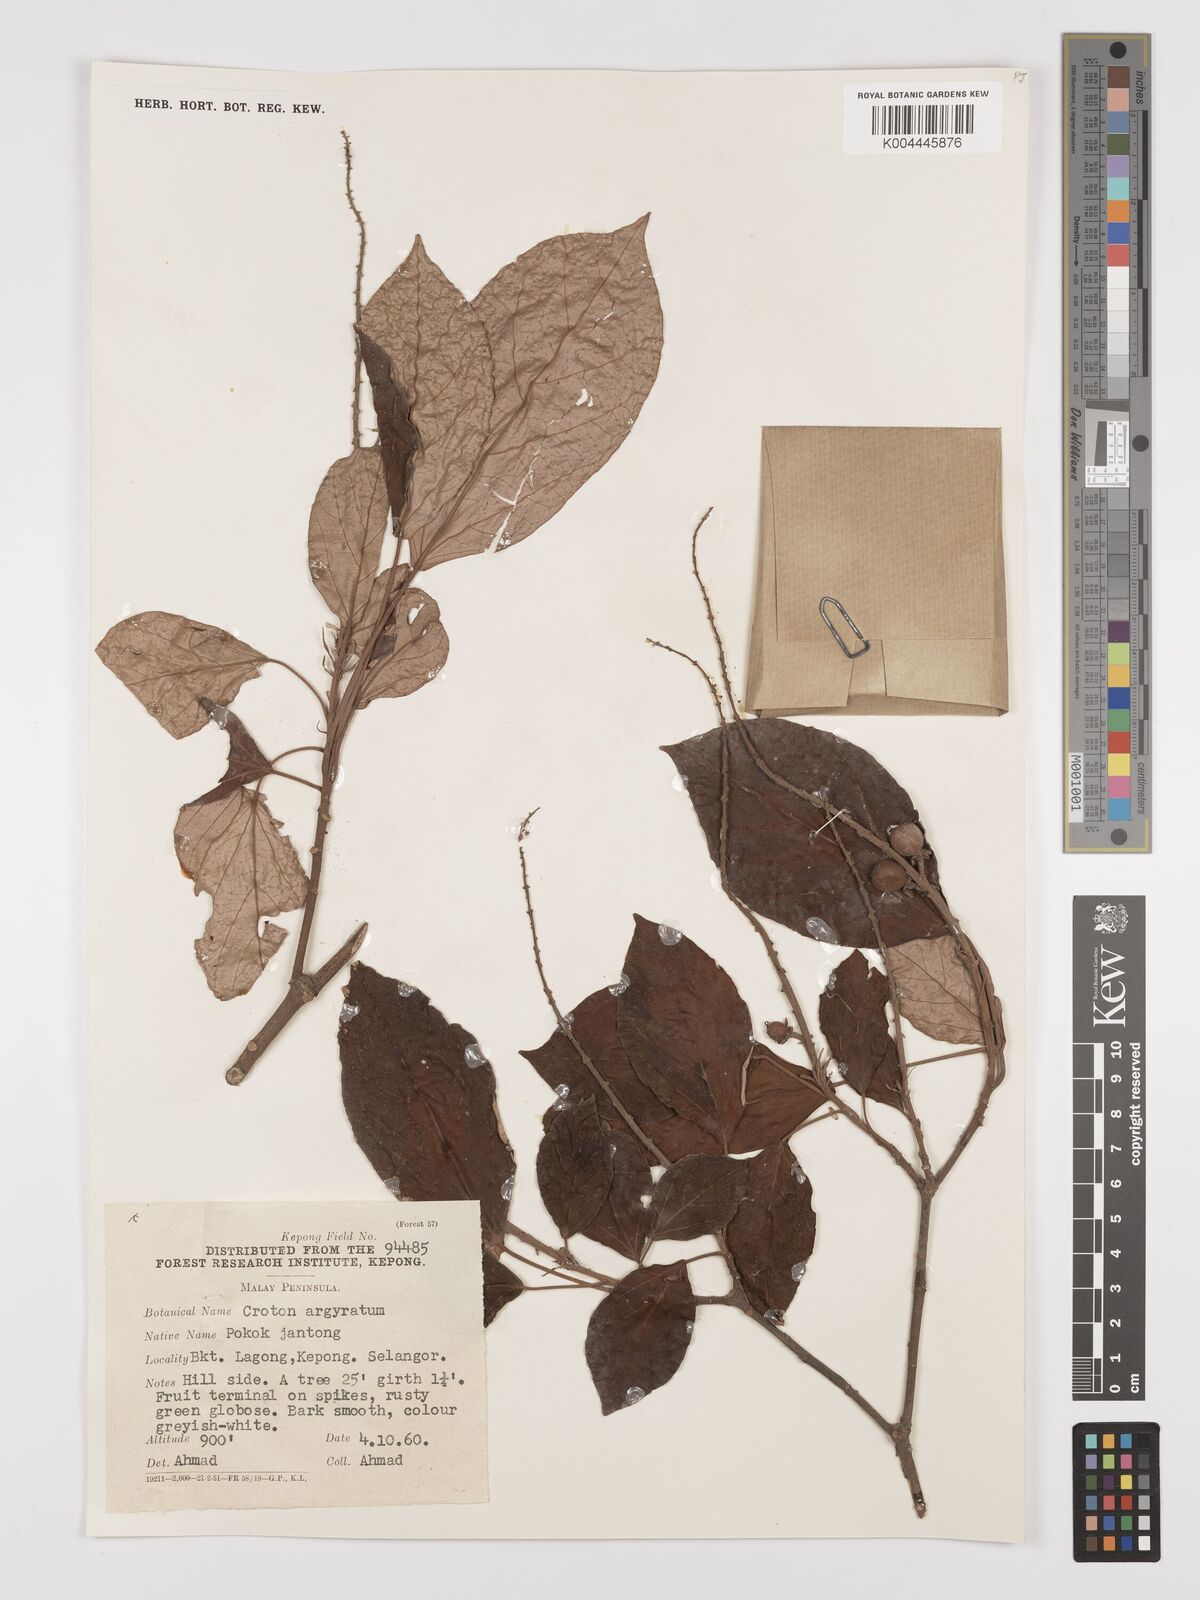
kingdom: Plantae
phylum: Tracheophyta
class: Magnoliopsida
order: Malpighiales
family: Euphorbiaceae
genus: Croton
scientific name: Croton argyratus
